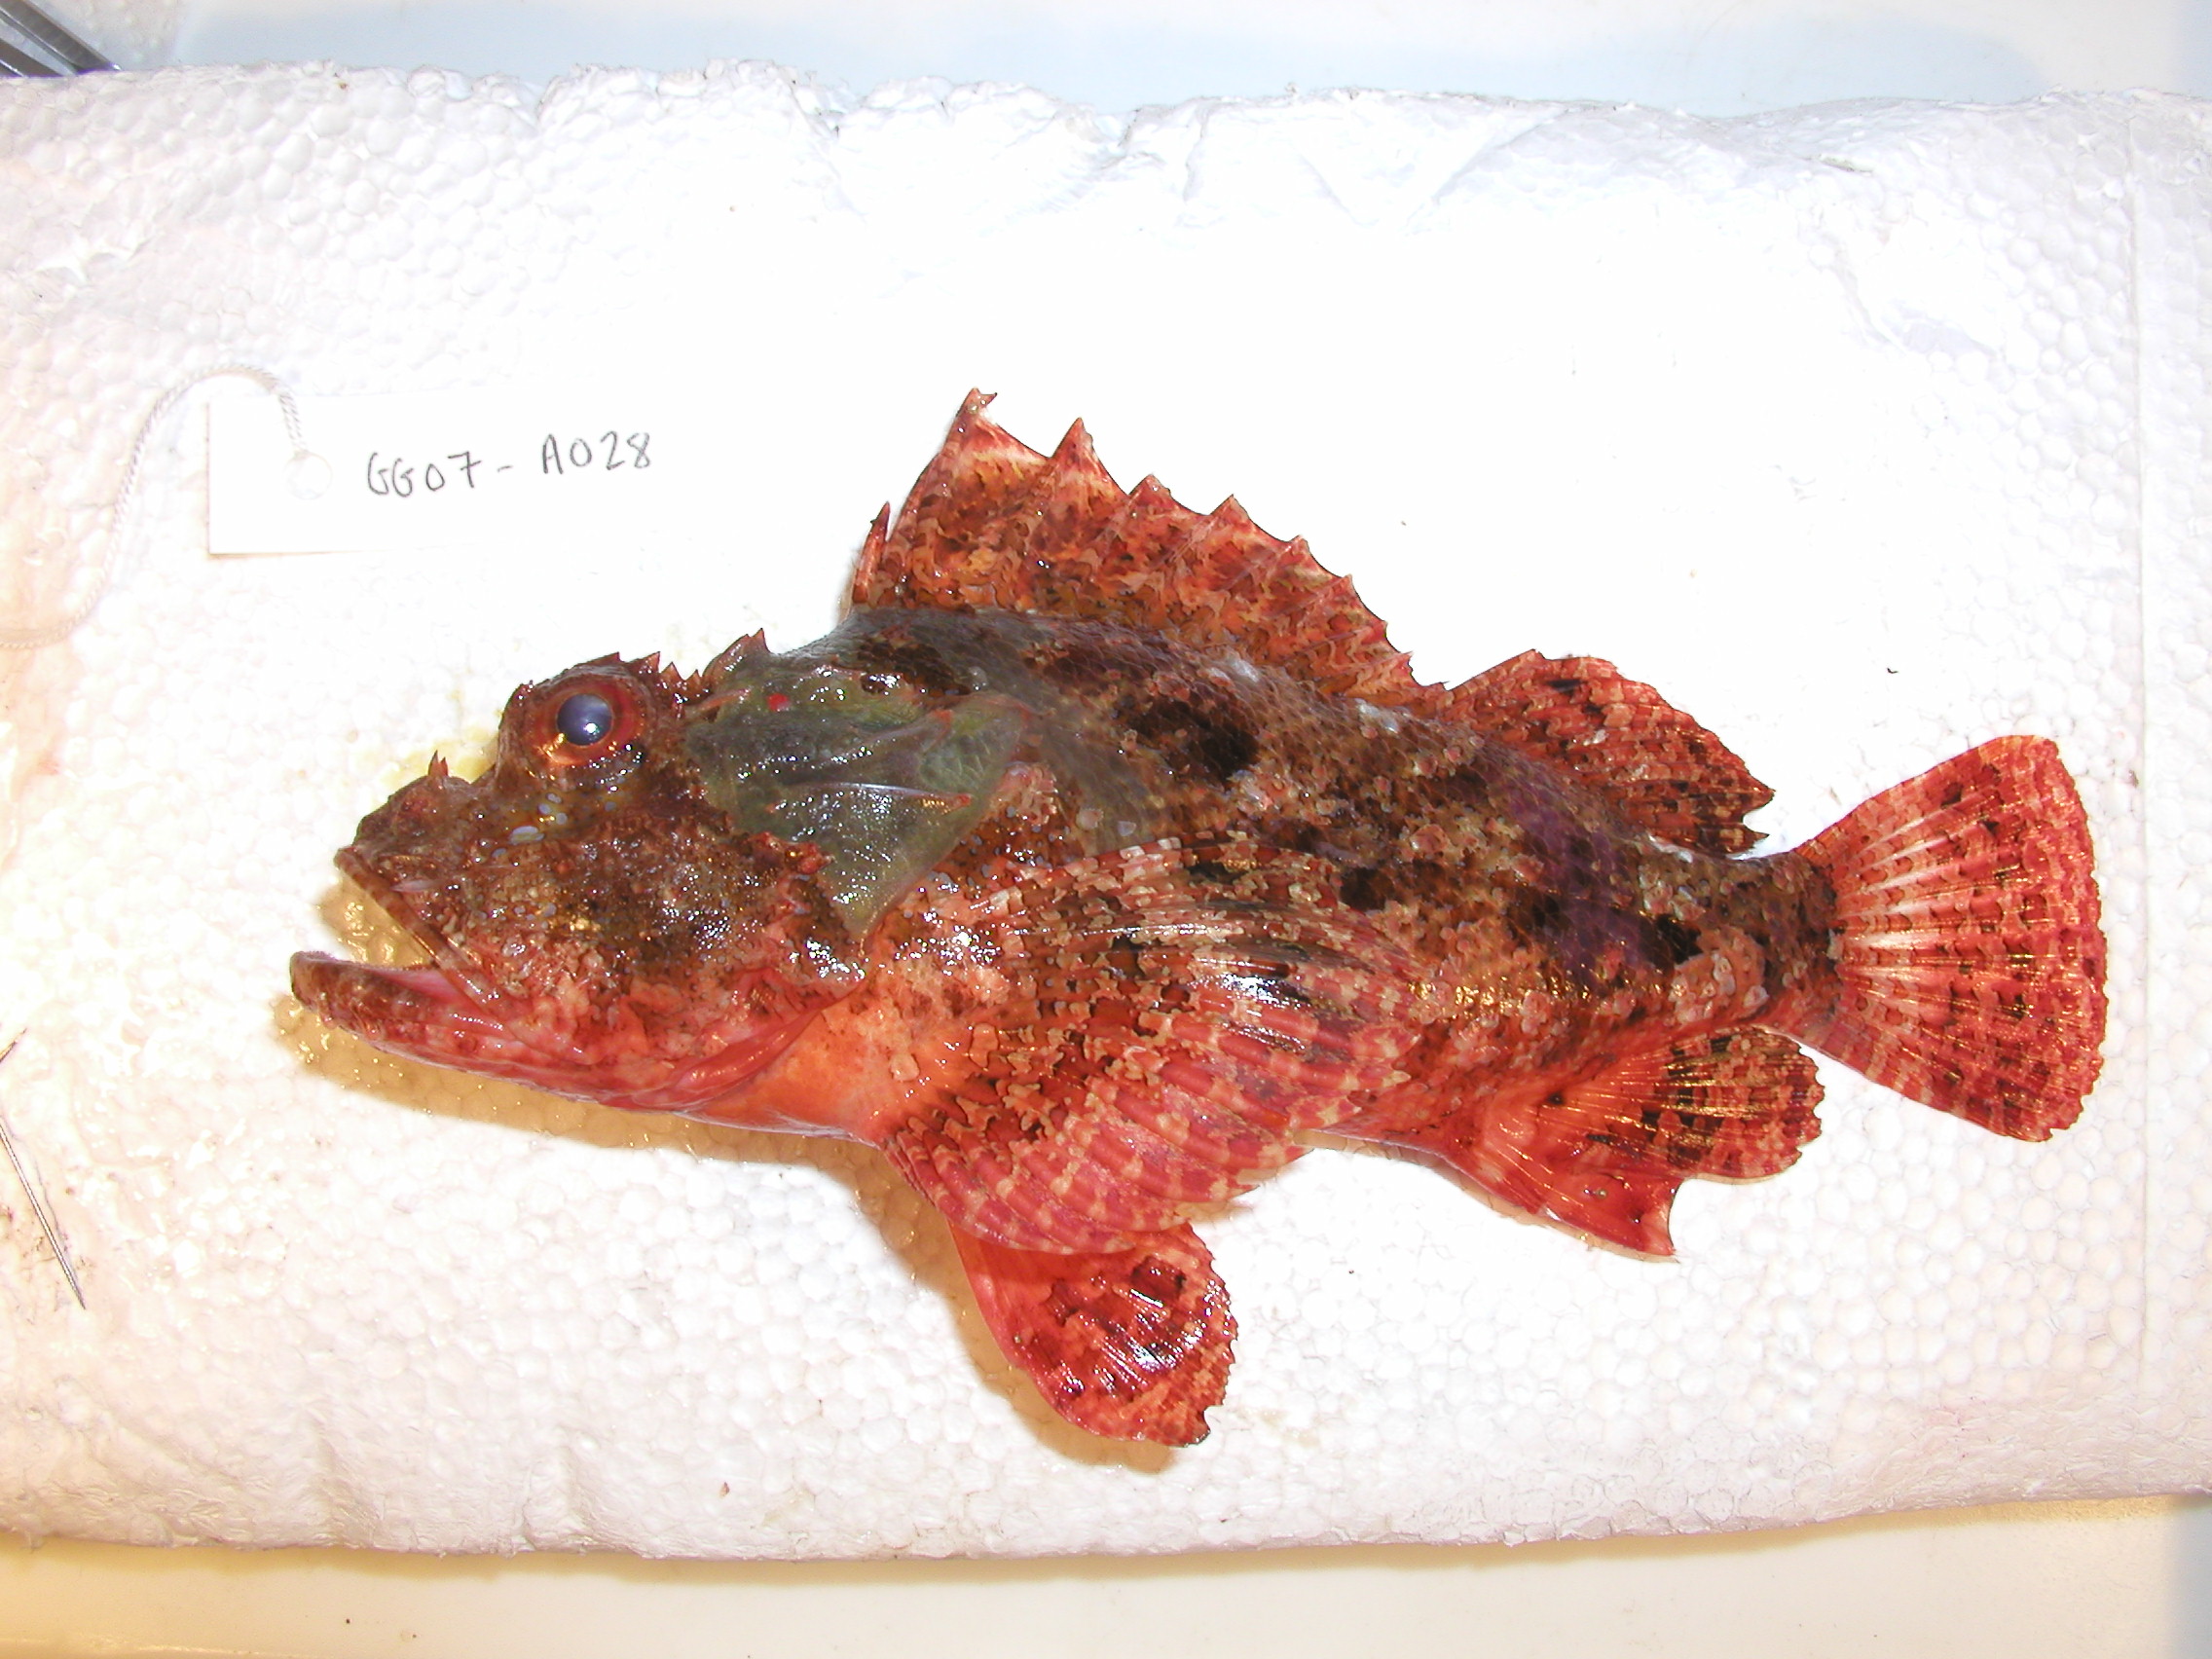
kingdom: Animalia
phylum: Chordata
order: Scorpaeniformes
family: Scorpaenidae
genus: Scorpaenopsis
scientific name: Scorpaenopsis
